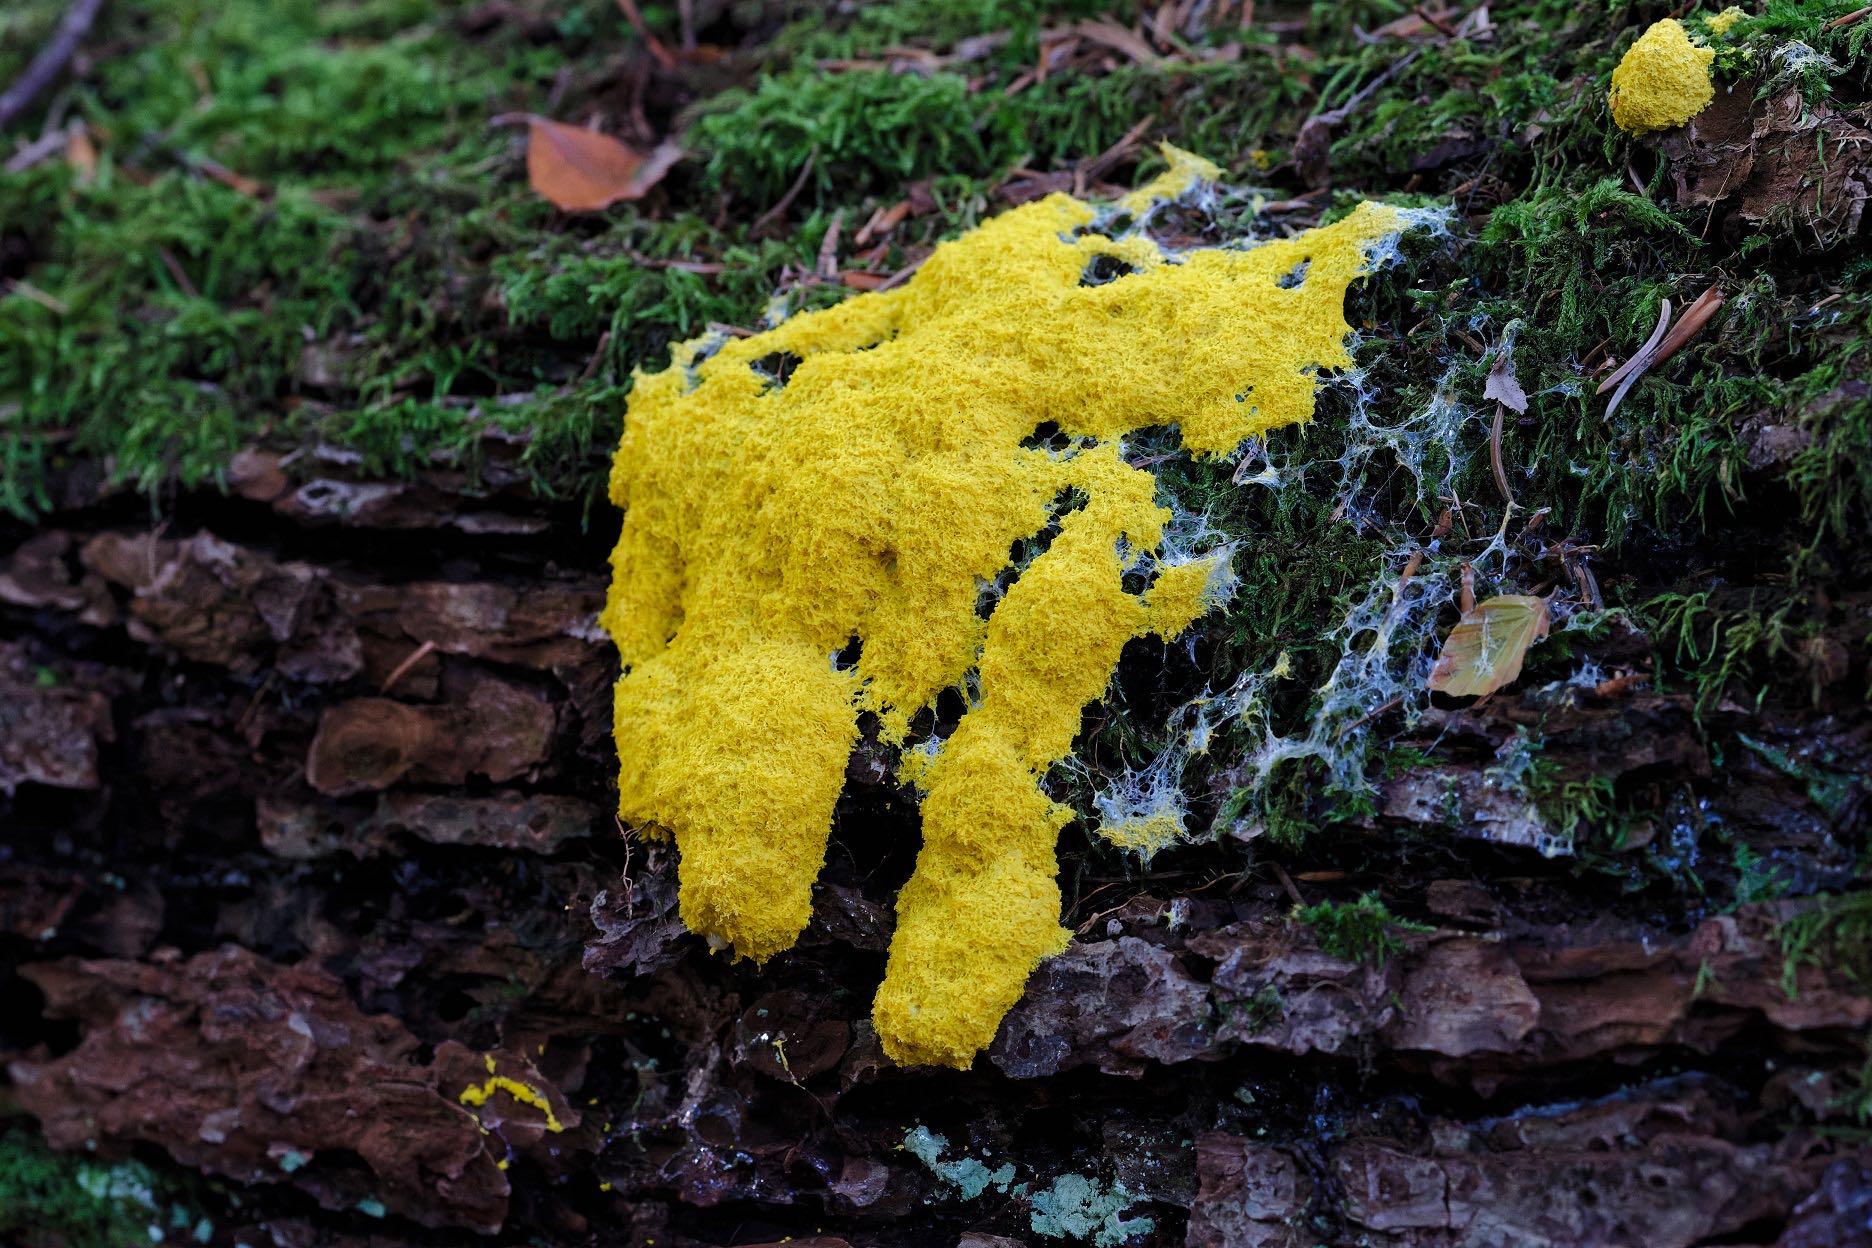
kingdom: Protozoa
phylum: Mycetozoa
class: Myxomycetes
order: Physarales
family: Physaraceae
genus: Fuligo
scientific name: Fuligo septica
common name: gul troldsmør
